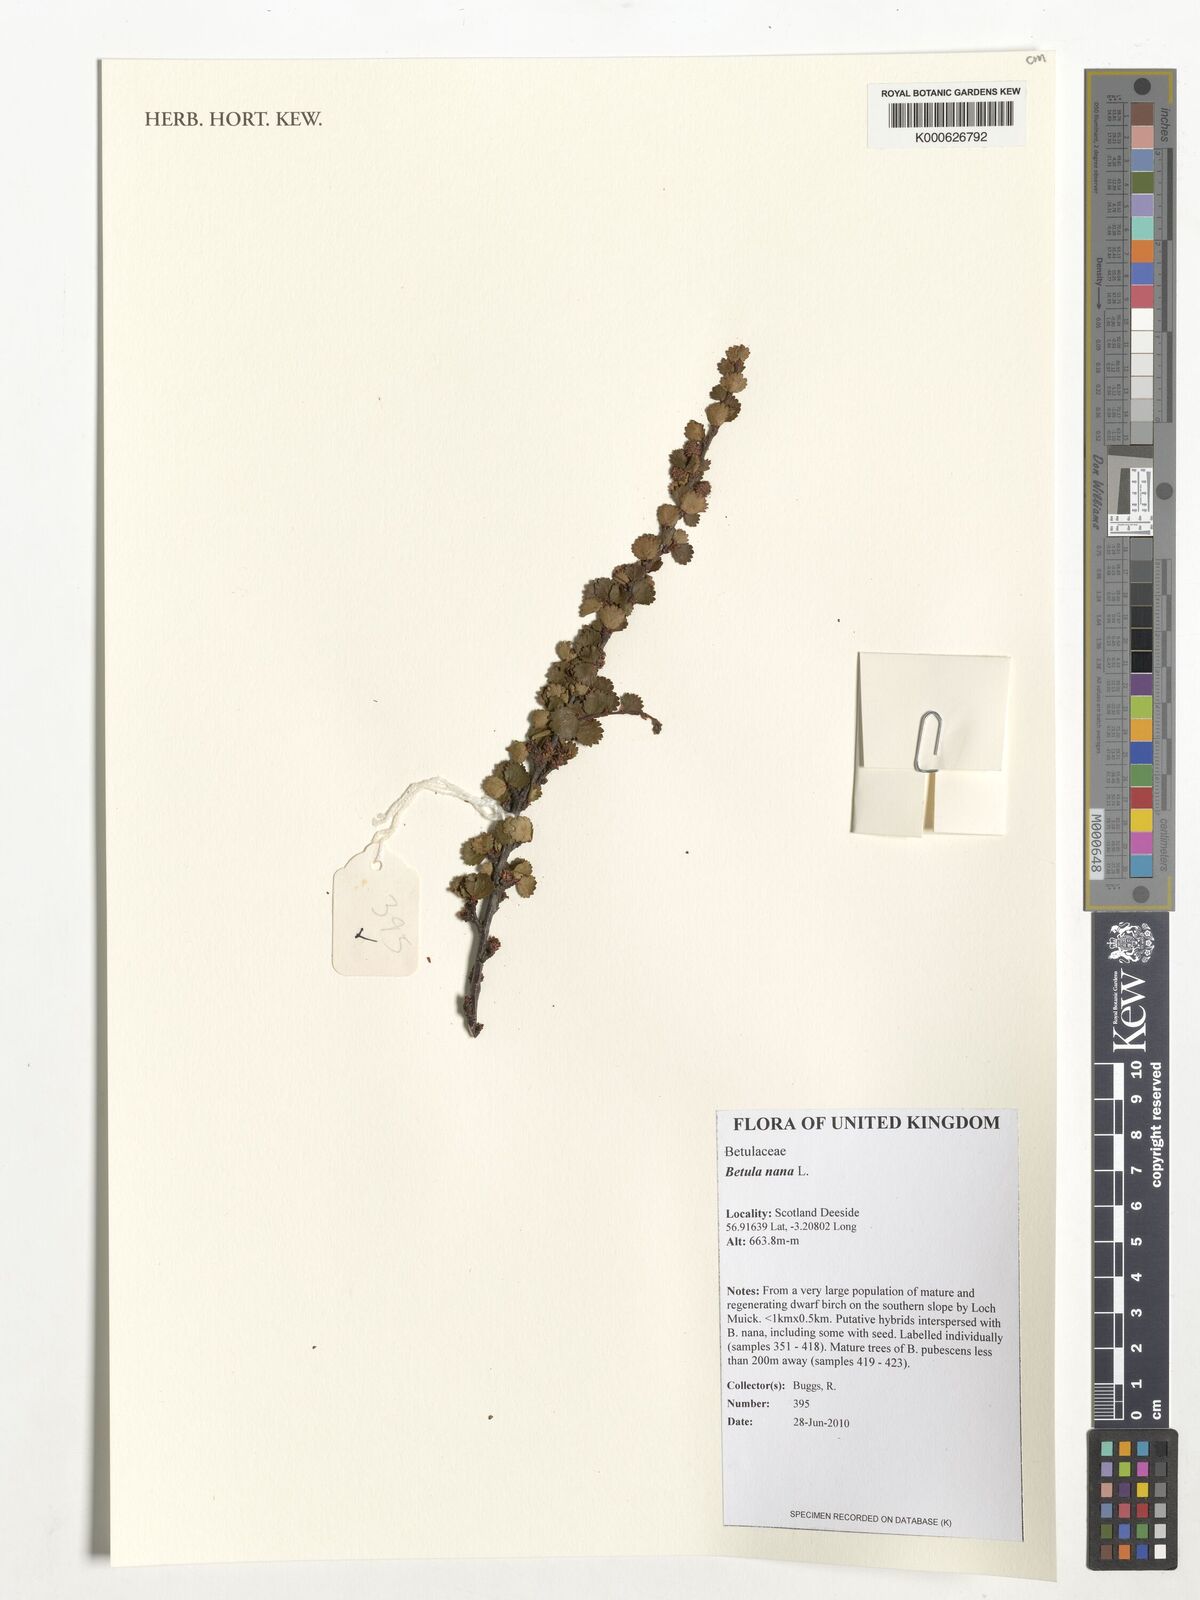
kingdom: Plantae
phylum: Tracheophyta
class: Magnoliopsida
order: Fagales
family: Betulaceae
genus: Betula
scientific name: Betula nana
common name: Arctic dwarf birch
